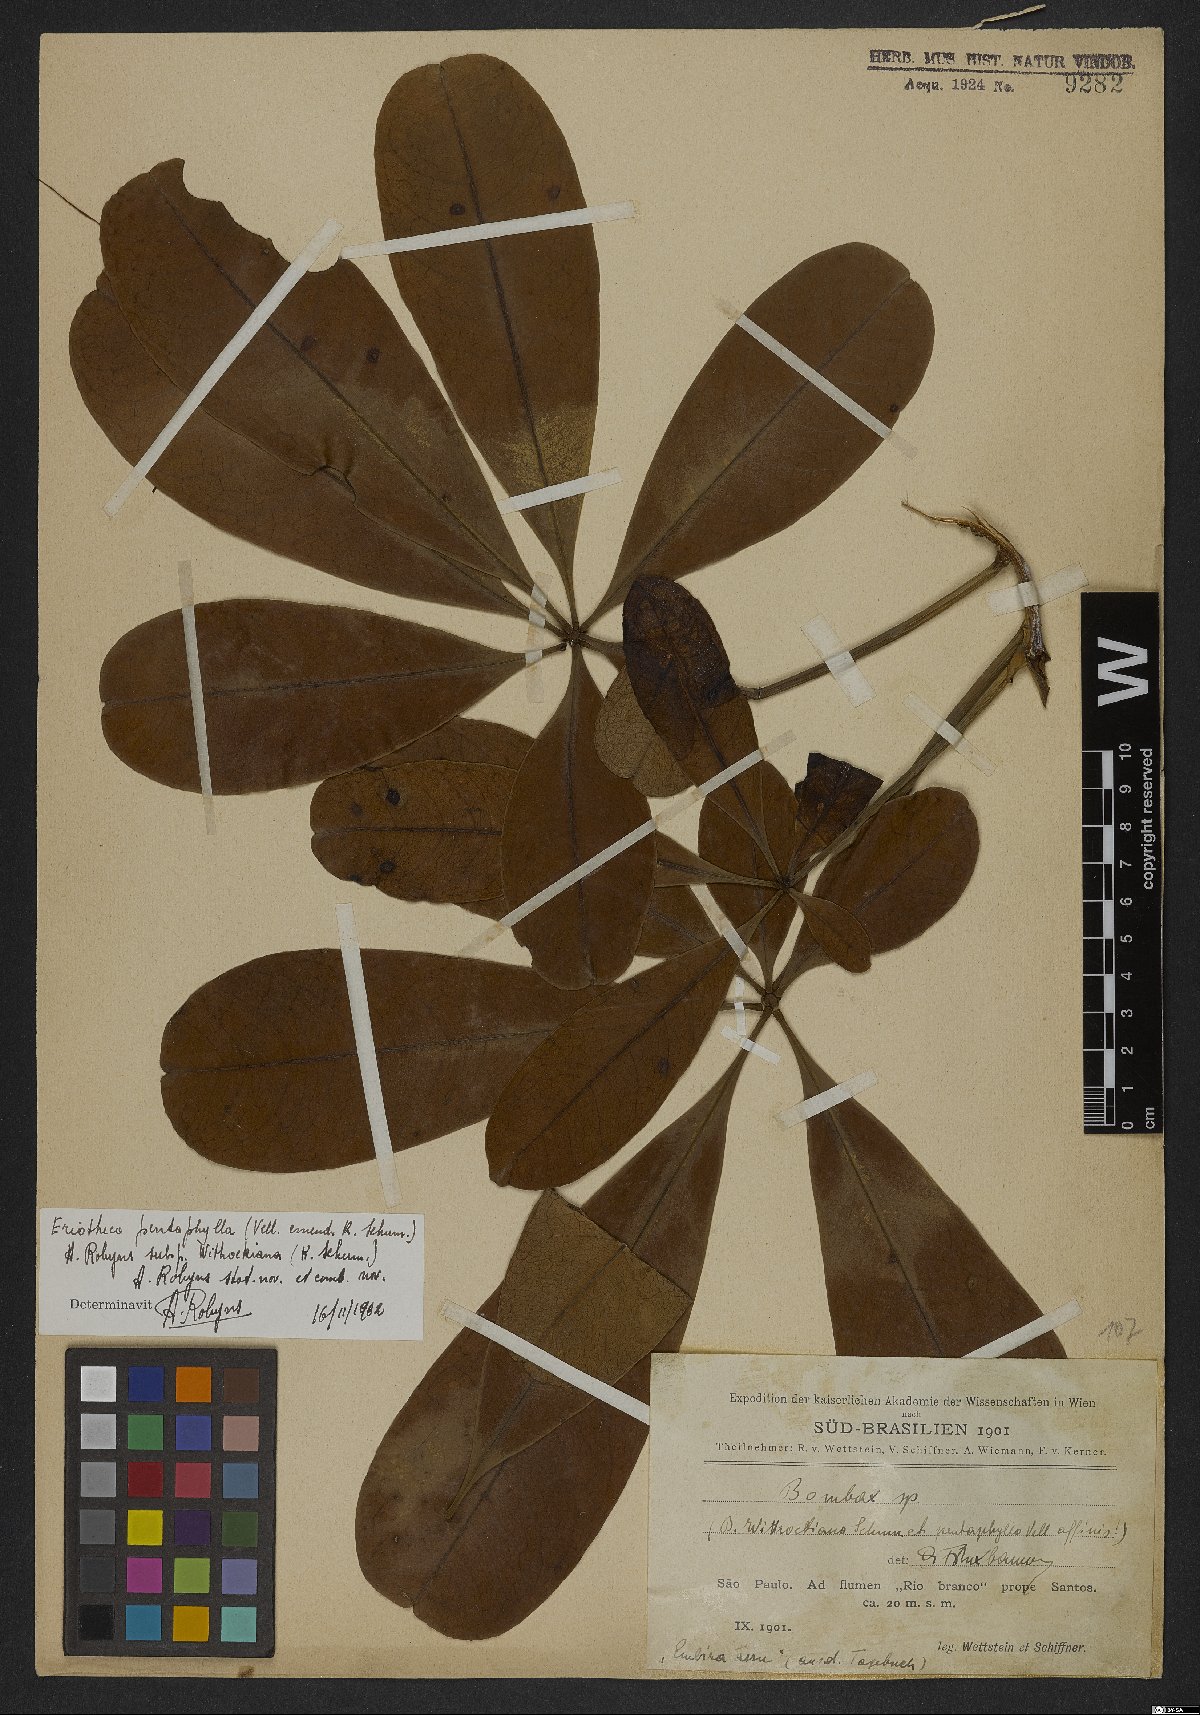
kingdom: Plantae
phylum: Tracheophyta
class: Magnoliopsida
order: Malvales
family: Malvaceae
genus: Eriotheca
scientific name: Eriotheca pentaphylla
